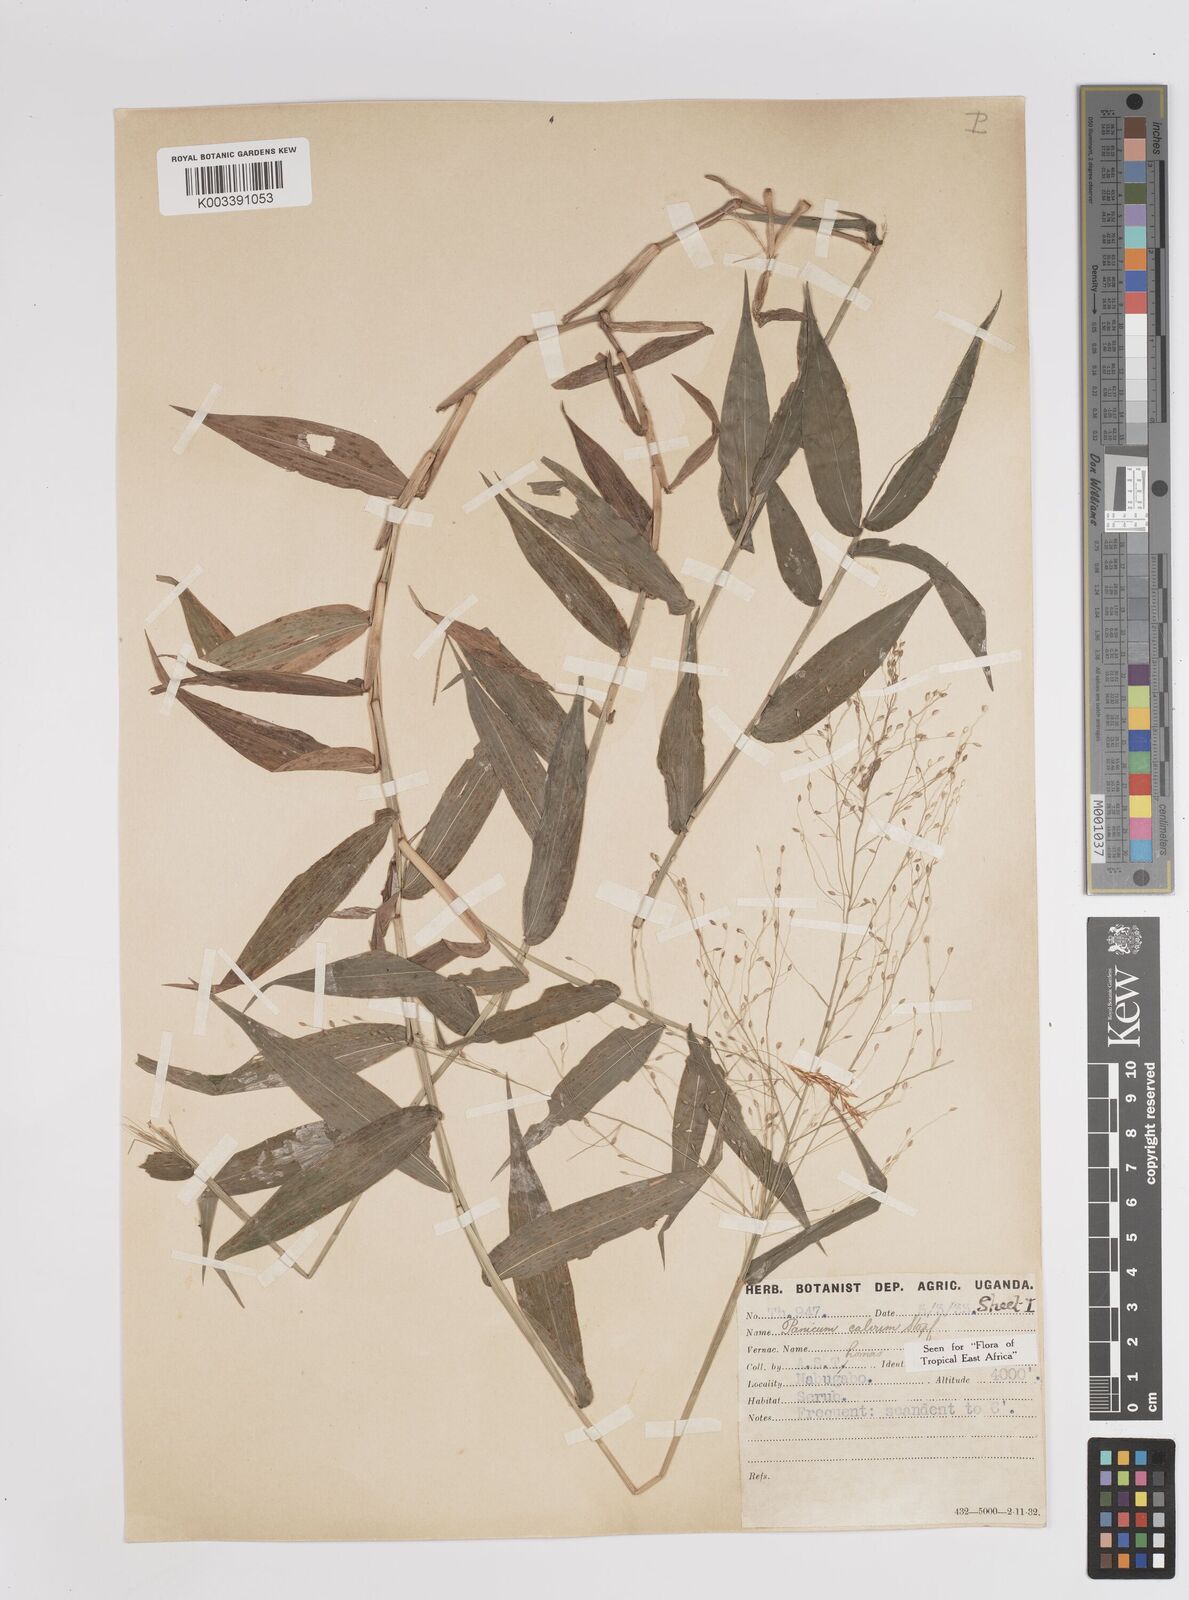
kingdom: Plantae
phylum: Tracheophyta
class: Liliopsida
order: Poales
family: Poaceae
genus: Panicum
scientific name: Panicum calvum
